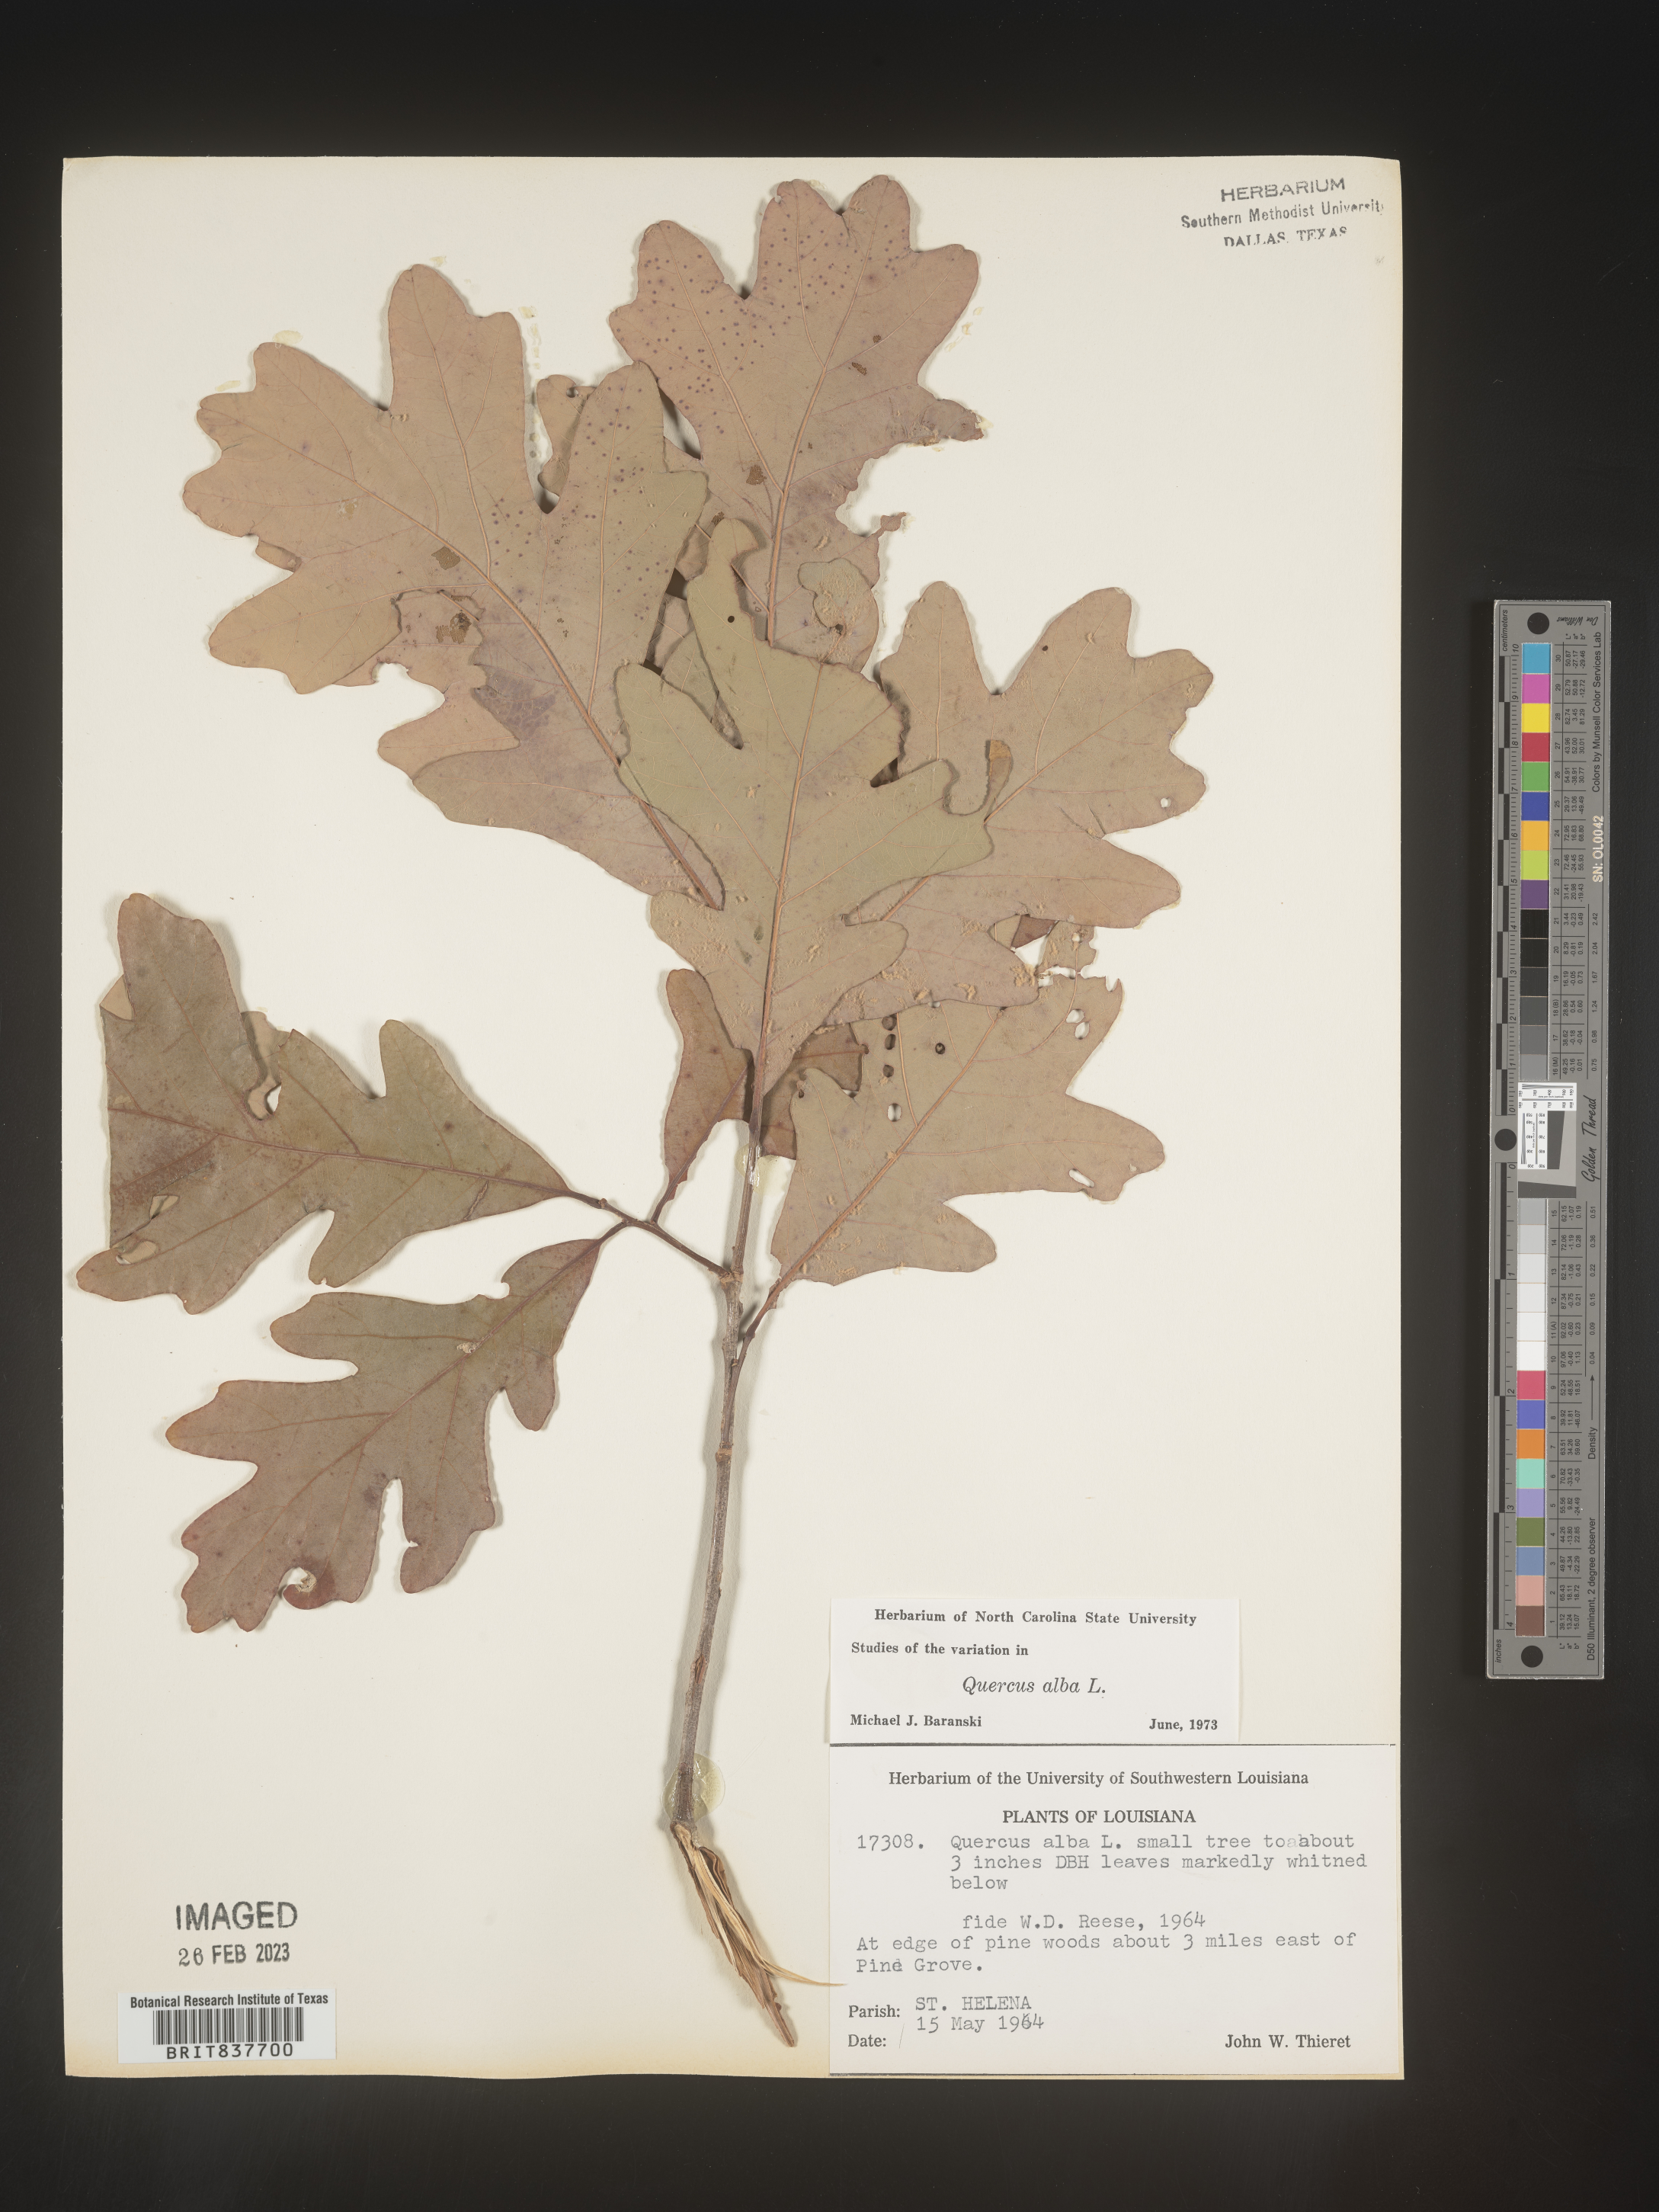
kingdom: Plantae
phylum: Tracheophyta
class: Magnoliopsida
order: Fagales
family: Fagaceae
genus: Quercus
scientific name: Quercus alba
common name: White oak
